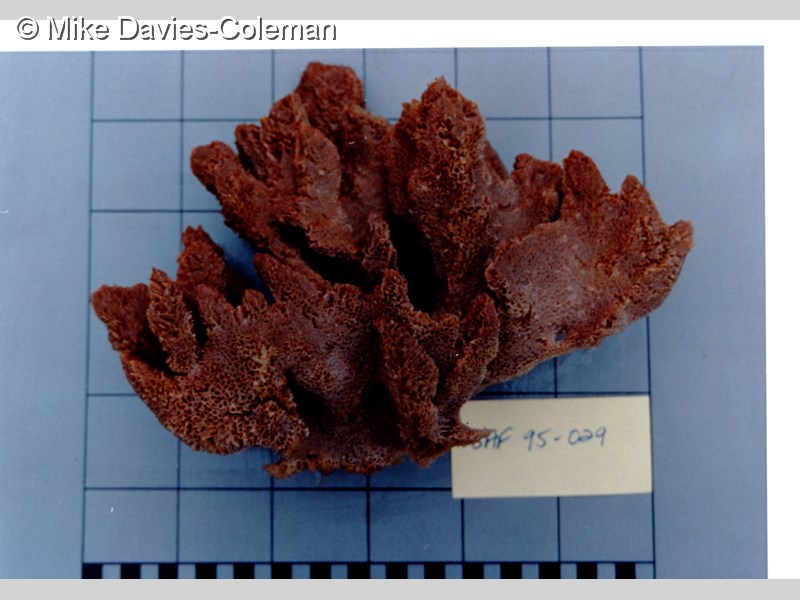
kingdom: Animalia
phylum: Porifera
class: Demospongiae
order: Bubarida
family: Dictyonellidae
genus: Stylissa
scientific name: Stylissa
